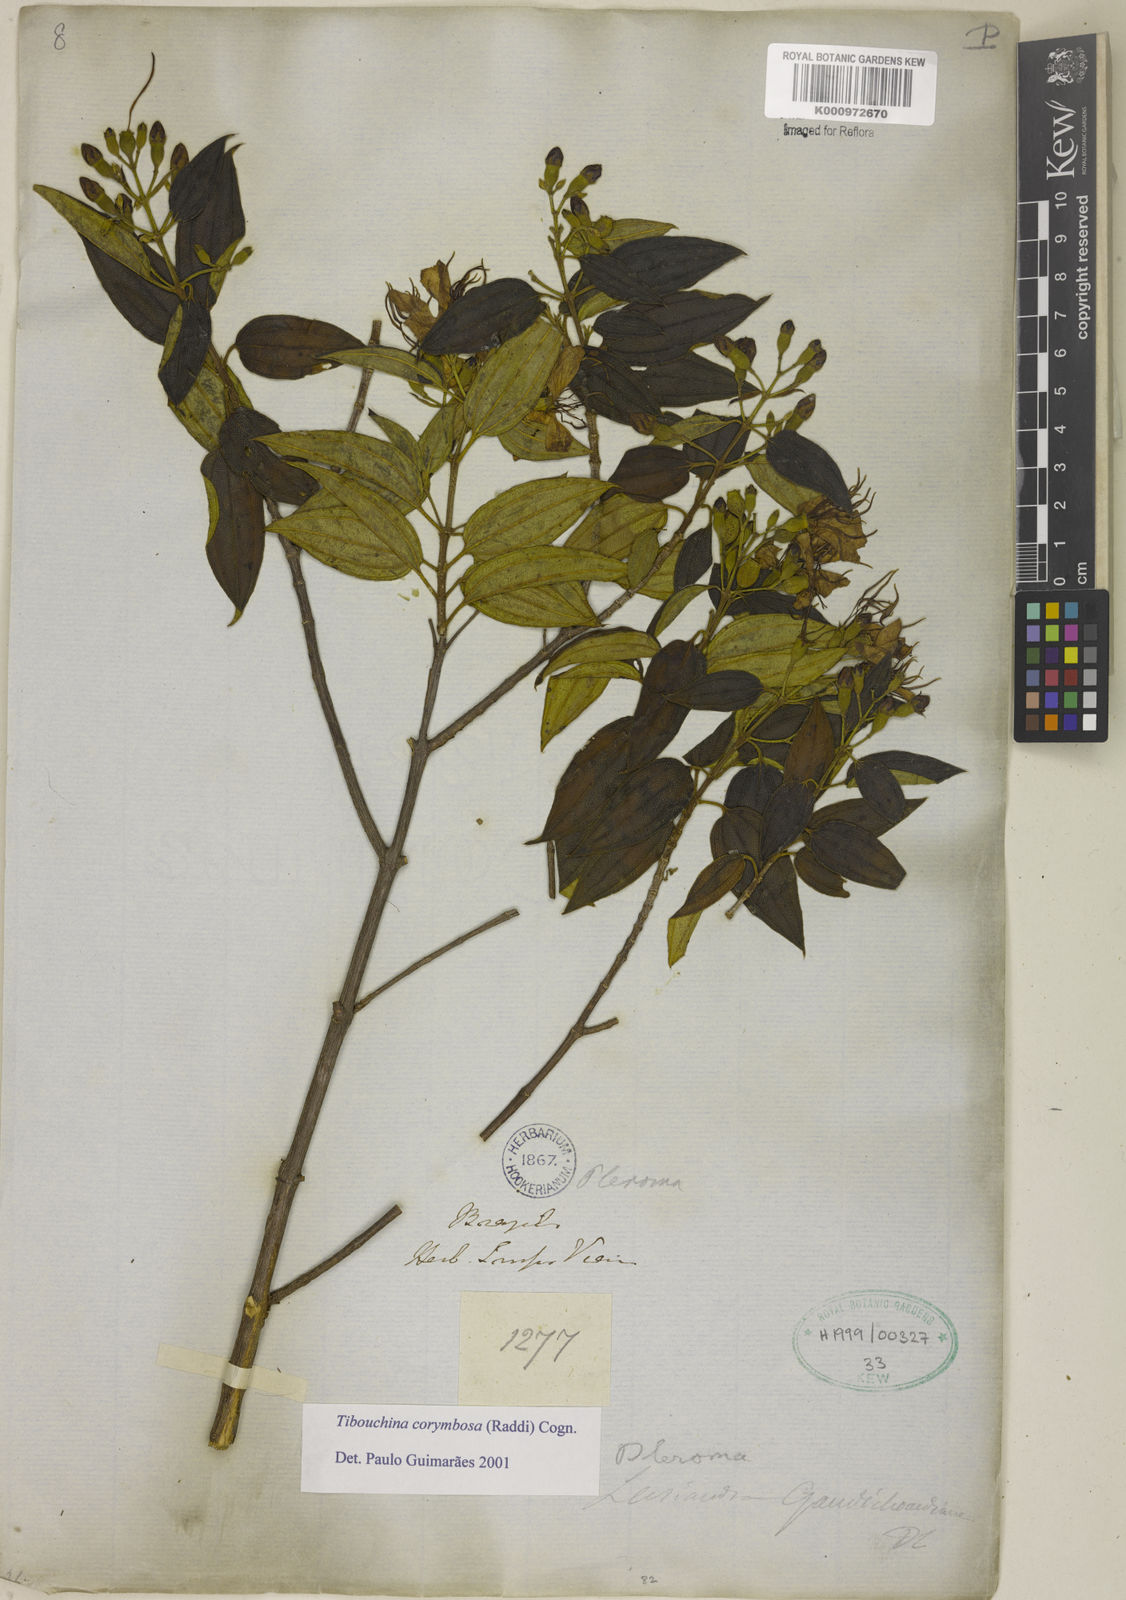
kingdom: Plantae
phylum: Tracheophyta
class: Magnoliopsida
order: Myrtales
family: Melastomataceae
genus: Pleroma
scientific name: Pleroma vimineum
